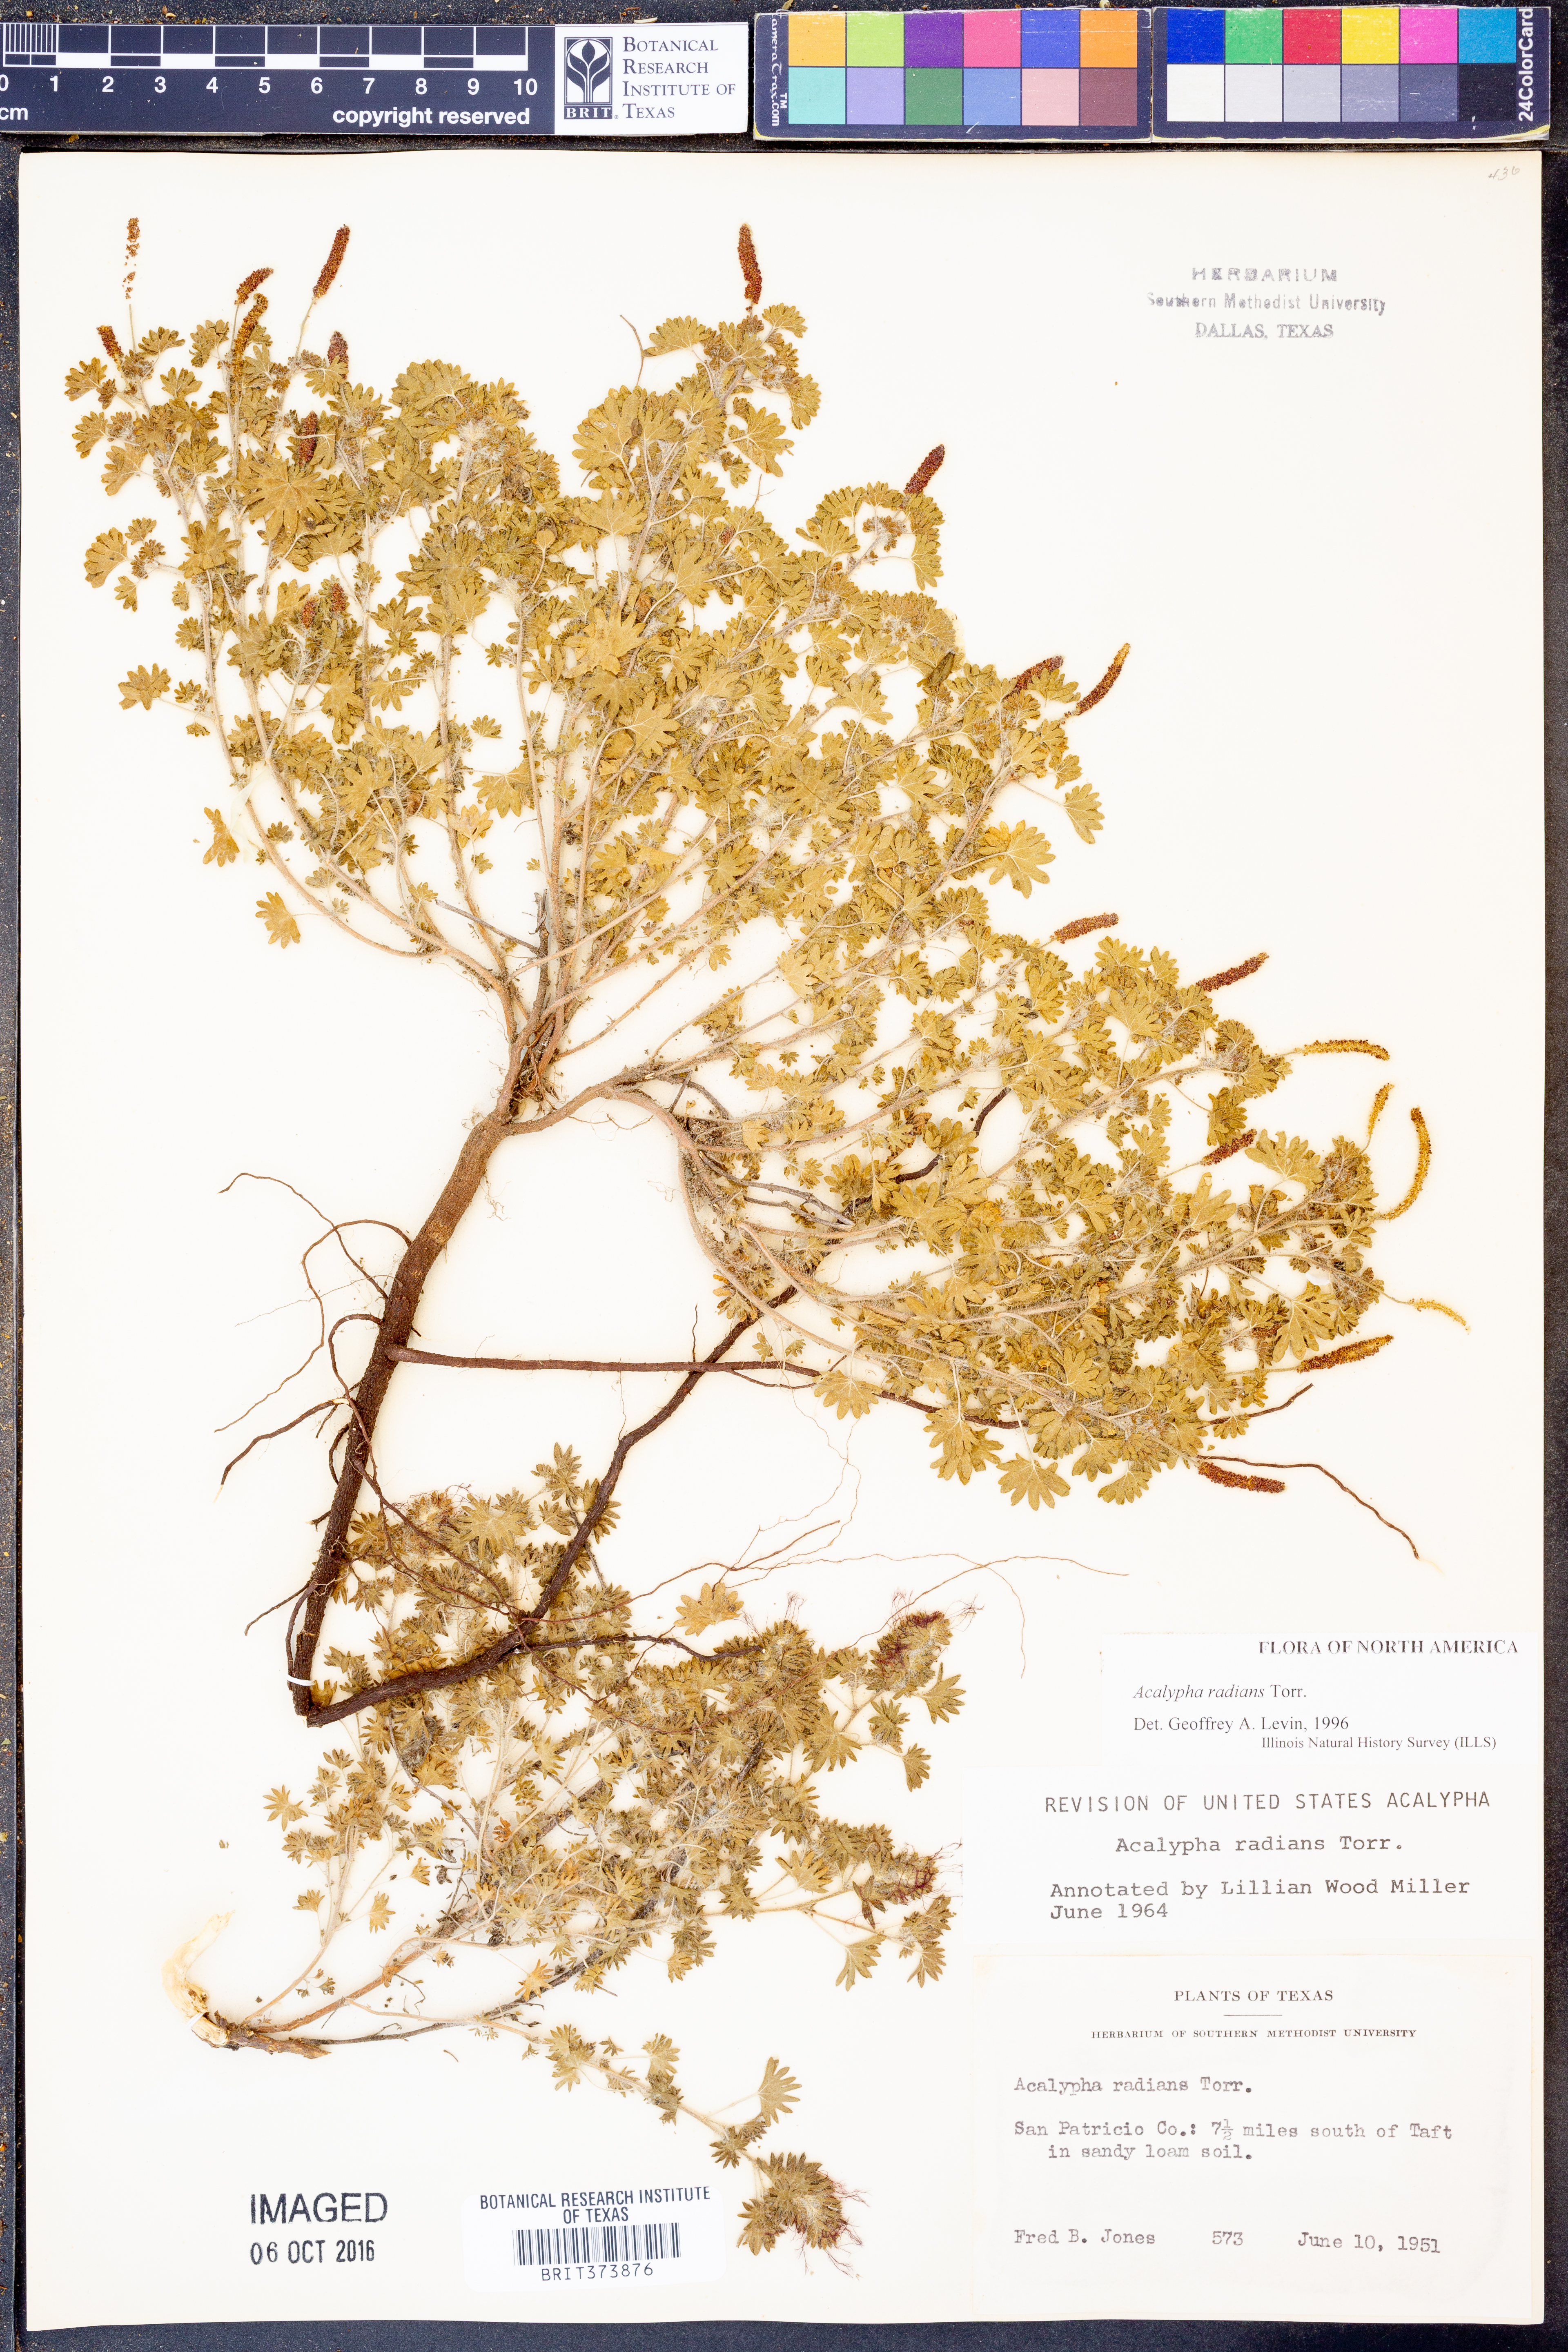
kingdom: Plantae
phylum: Tracheophyta
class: Magnoliopsida
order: Malpighiales
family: Euphorbiaceae
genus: Acalypha
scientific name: Acalypha radians
